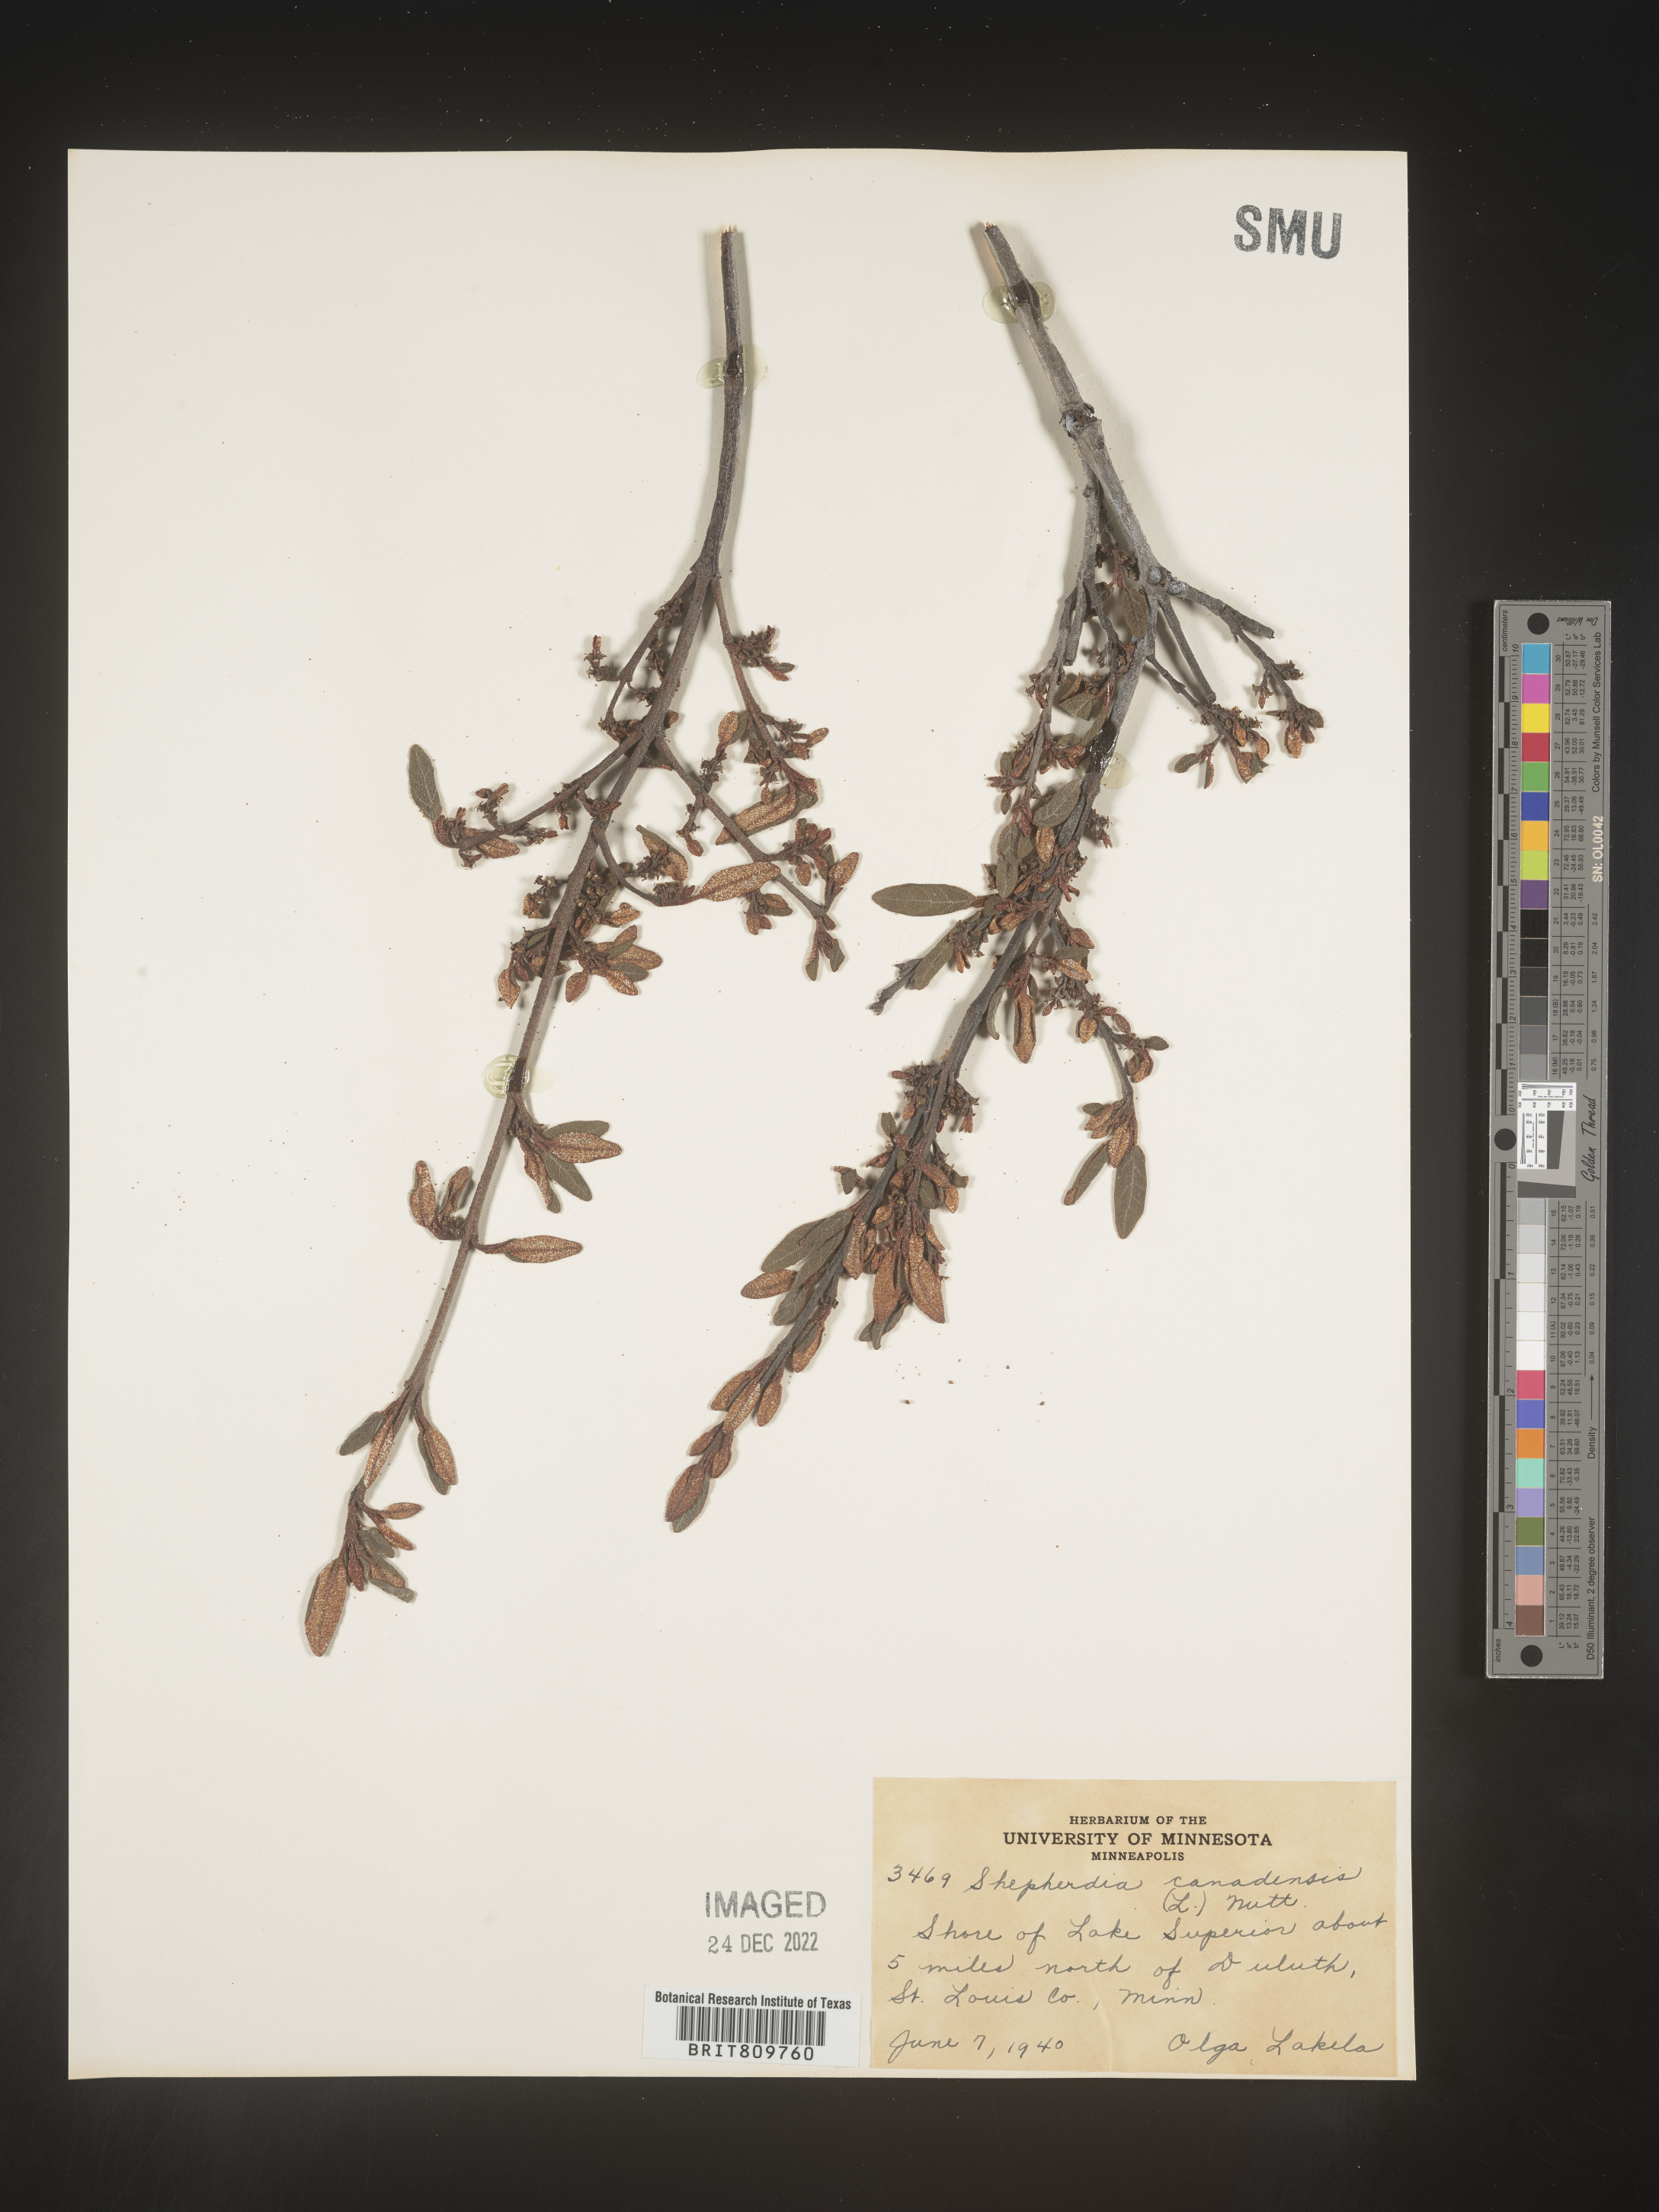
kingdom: Plantae
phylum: Tracheophyta
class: Magnoliopsida
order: Rosales
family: Elaeagnaceae
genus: Shepherdia
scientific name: Shepherdia canadensis
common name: Soapberry
